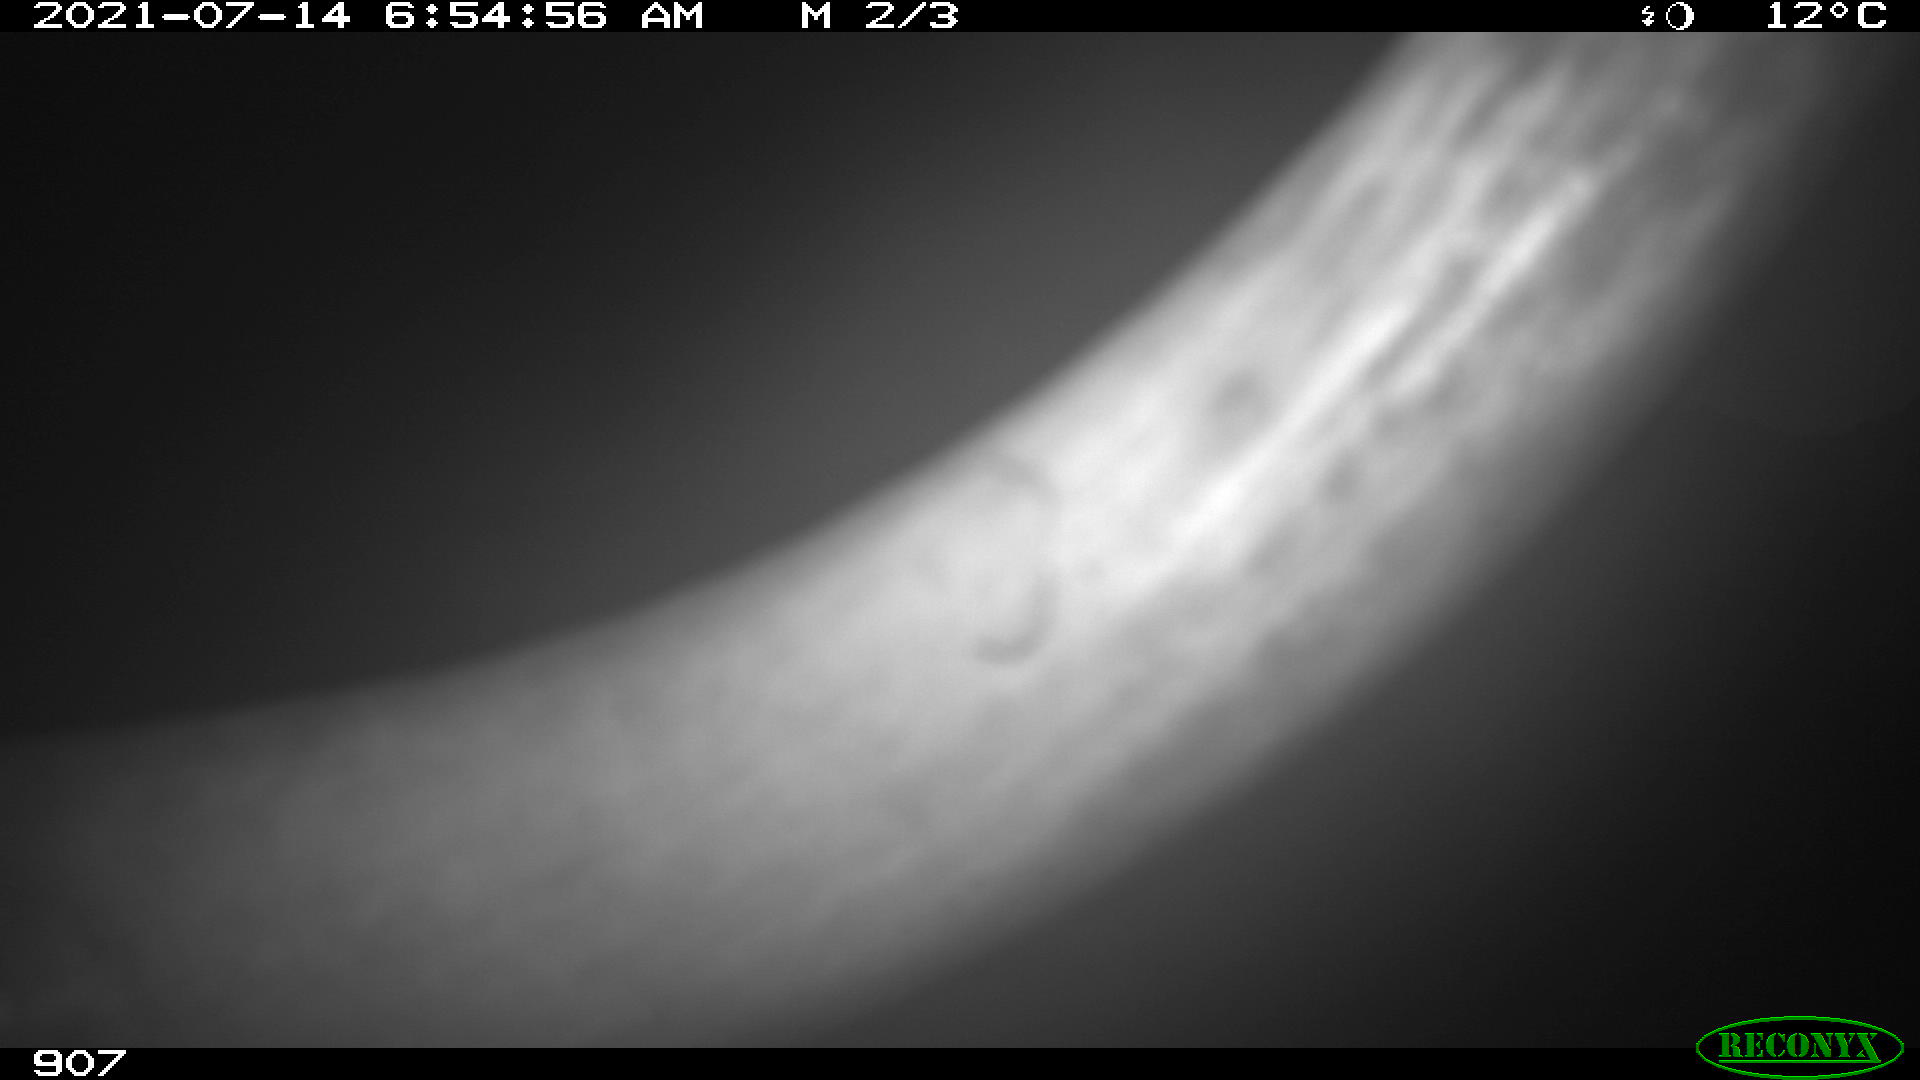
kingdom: Animalia
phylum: Chordata
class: Mammalia
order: Artiodactyla
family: Bovidae
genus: Bos
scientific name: Bos taurus
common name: Domesticated cattle
